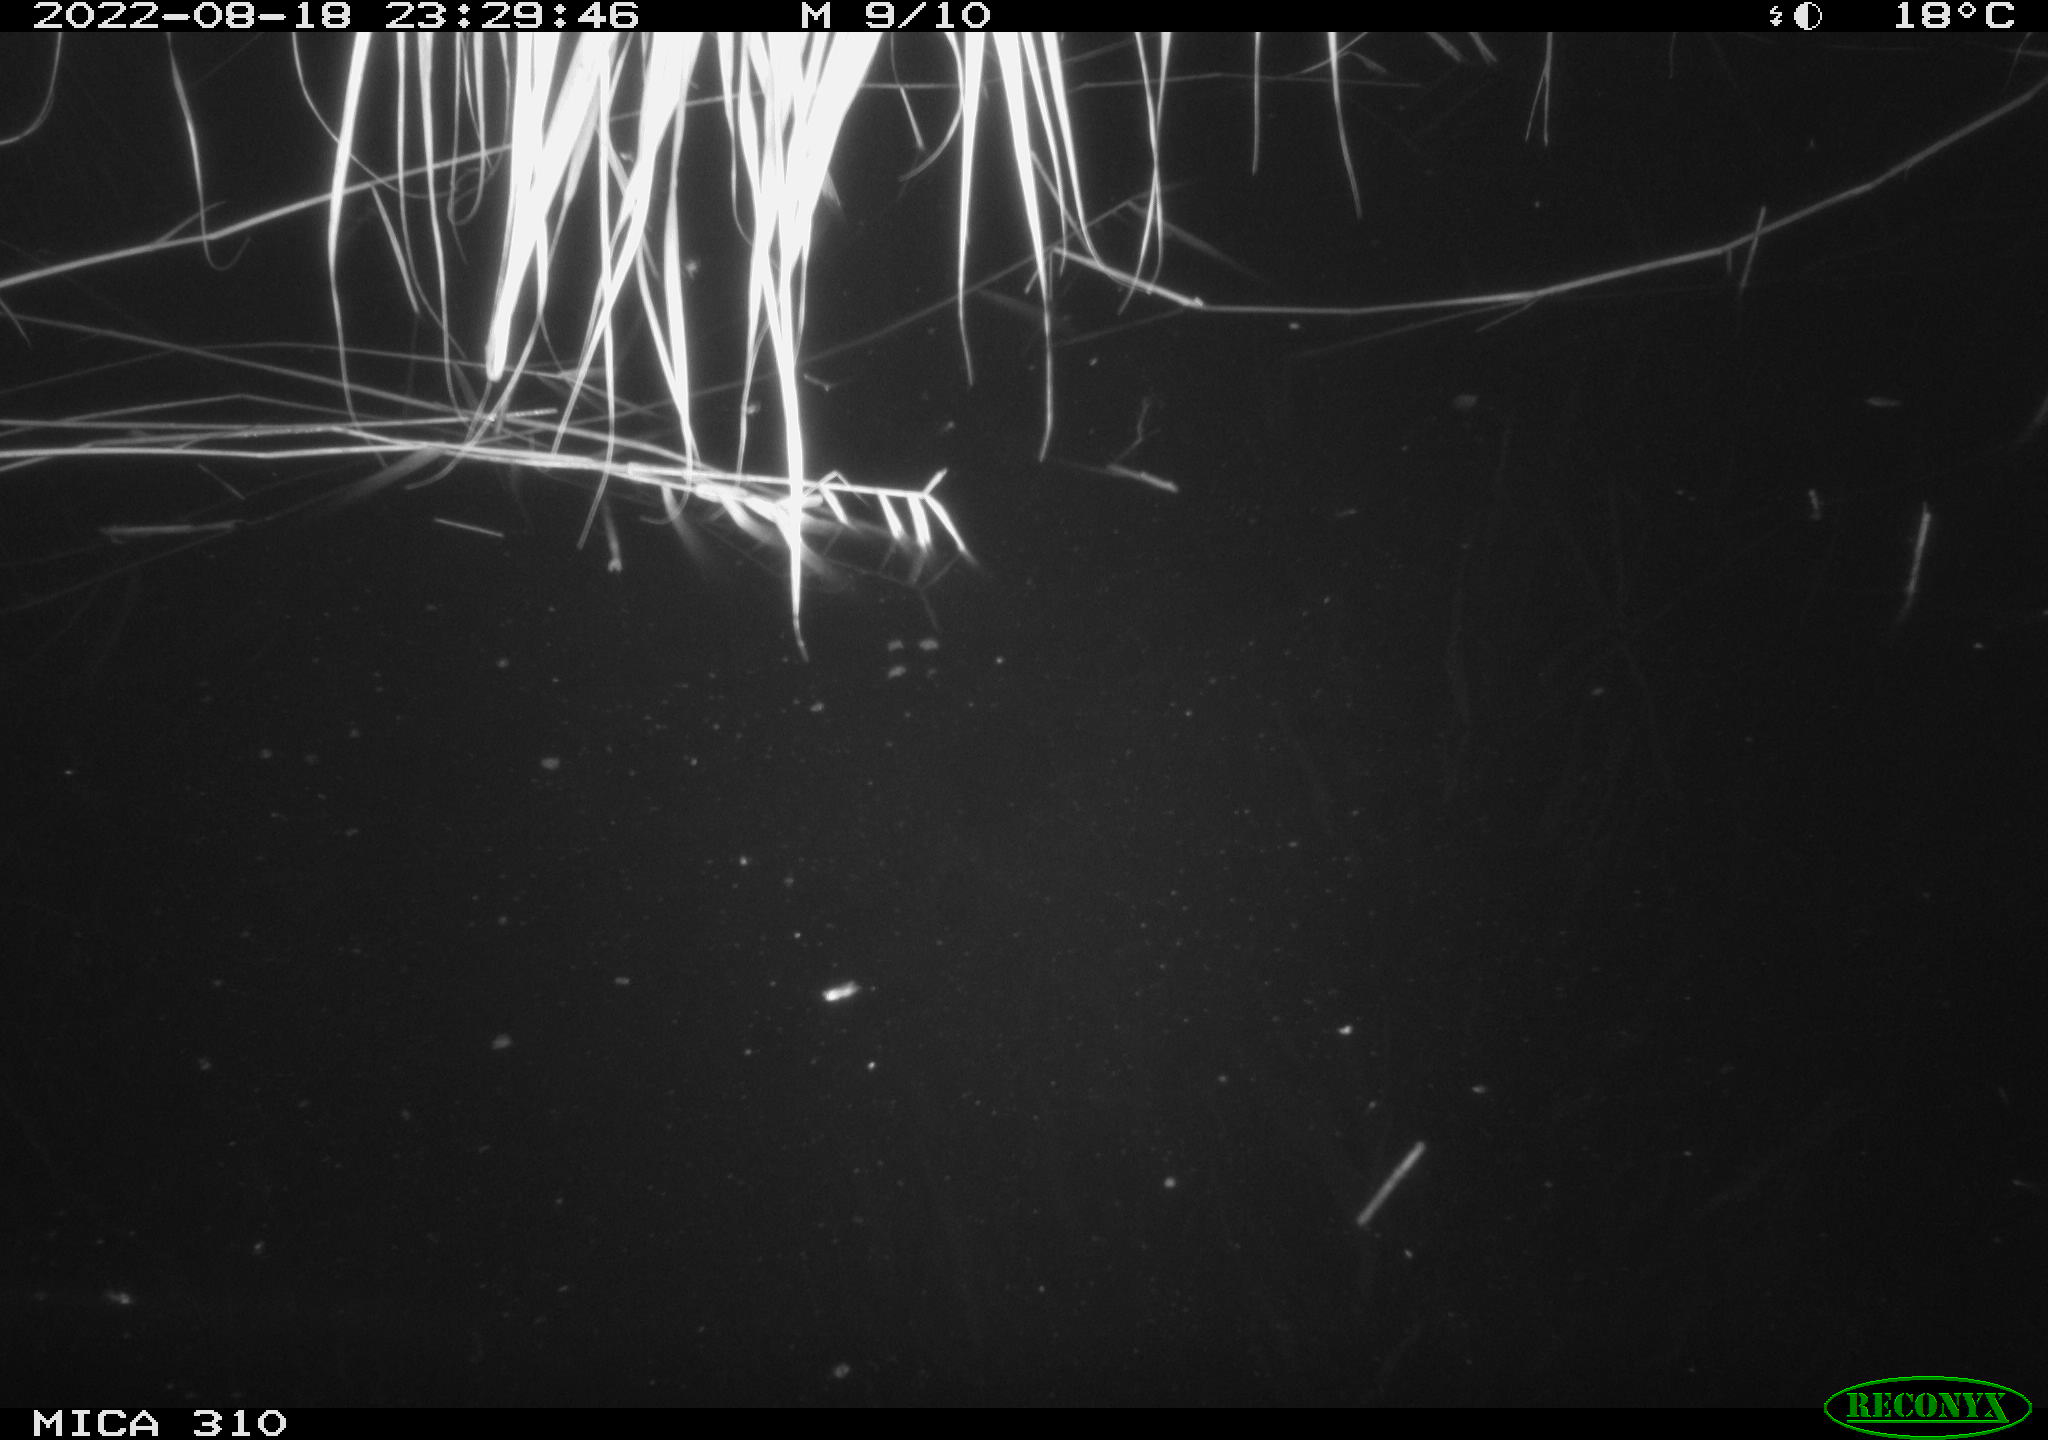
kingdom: Animalia
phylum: Chordata
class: Aves
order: Anseriformes
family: Anatidae
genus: Anas
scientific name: Anas platyrhynchos
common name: Mallard
